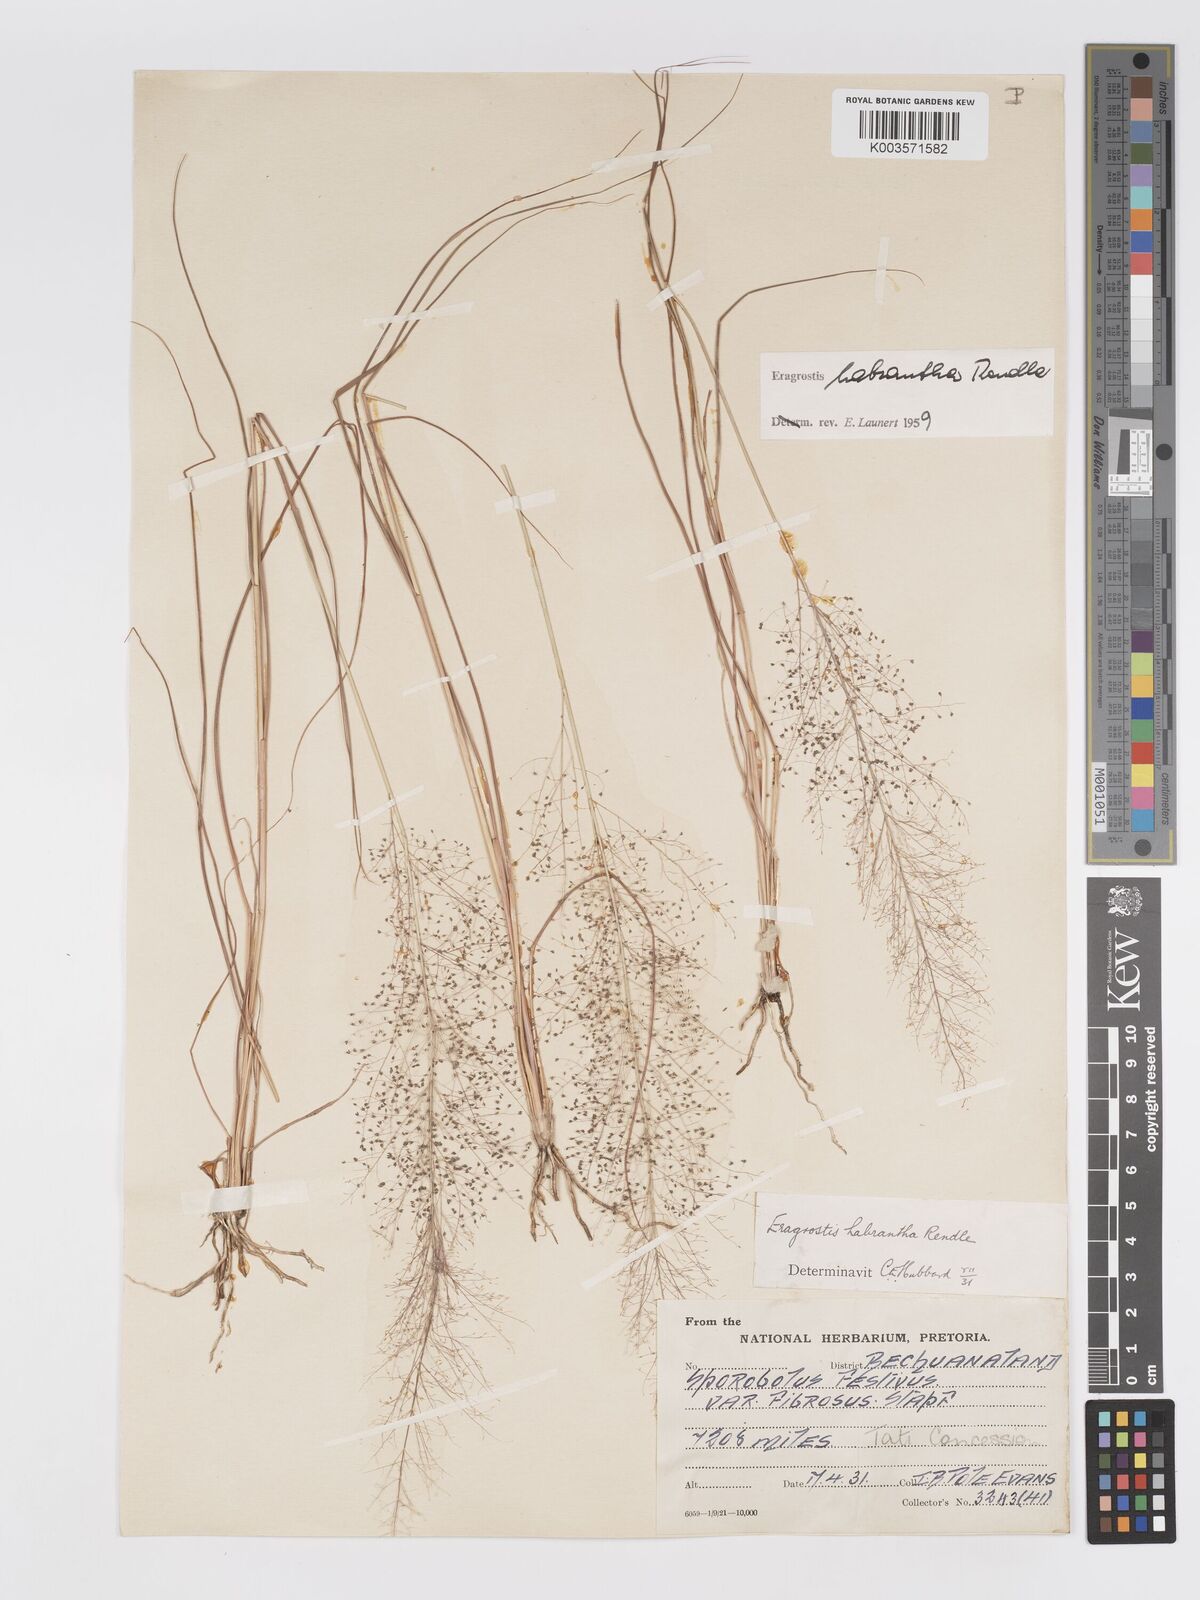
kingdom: Plantae
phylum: Tracheophyta
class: Liliopsida
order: Poales
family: Poaceae
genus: Eragrostis
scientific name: Eragrostis habrantha
